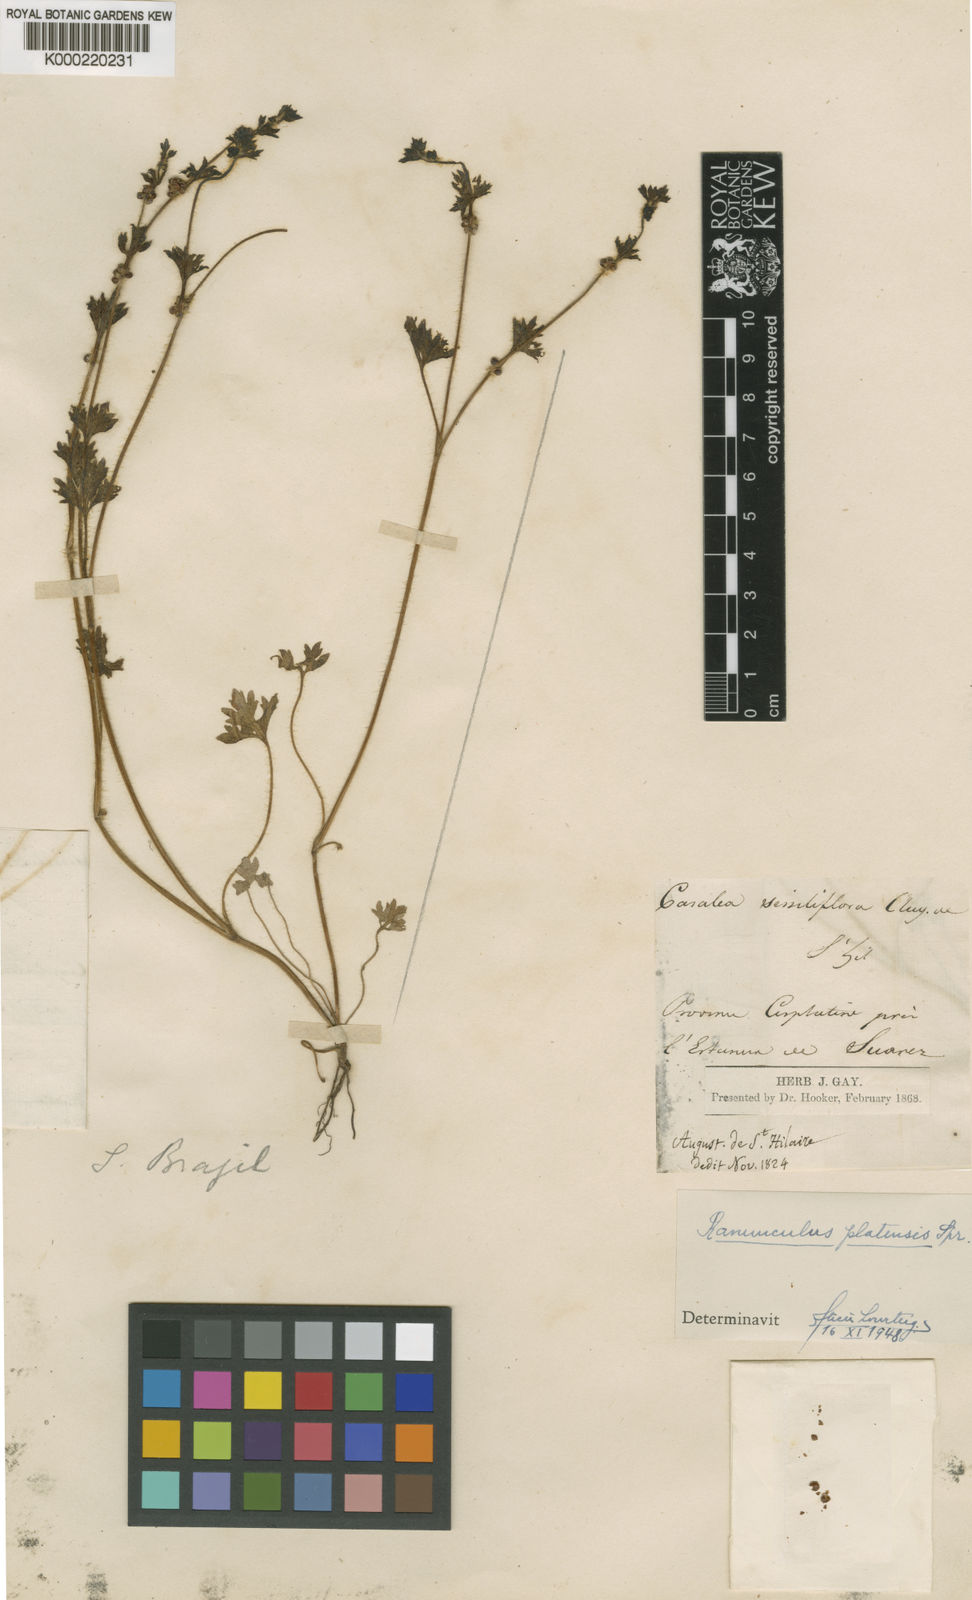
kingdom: Plantae
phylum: Tracheophyta
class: Magnoliopsida
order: Ranunculales
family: Ranunculaceae
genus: Ranunculus
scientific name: Ranunculus platensis
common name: Prairie buttercup
